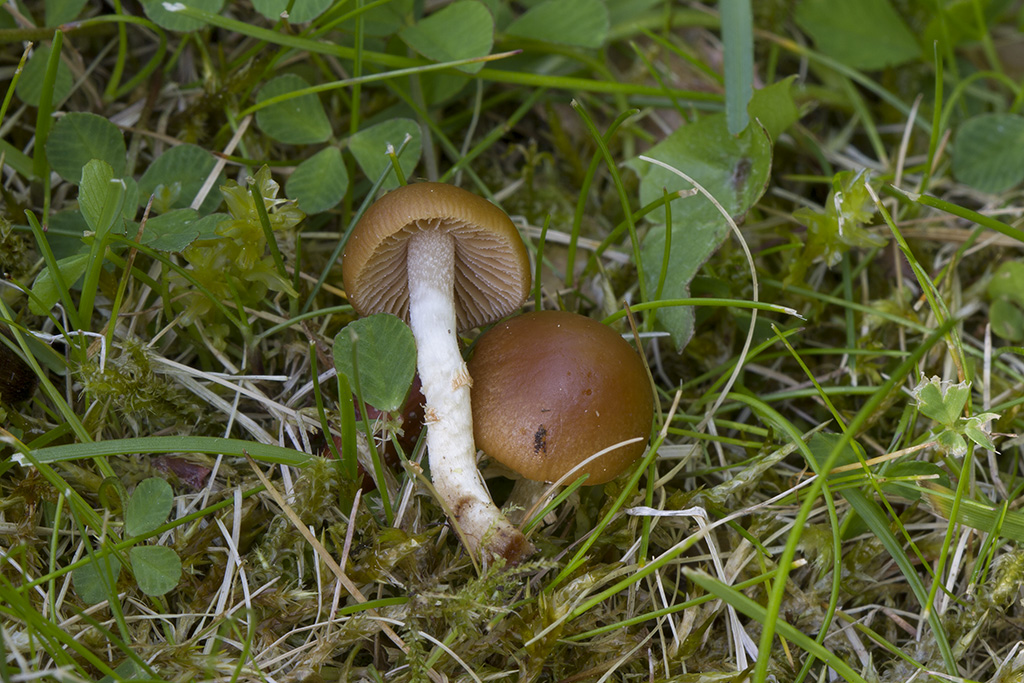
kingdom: Fungi
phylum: Basidiomycota
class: Agaricomycetes
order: Agaricales
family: Bolbitiaceae
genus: Conocybe
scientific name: Conocybe aporos
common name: tidlig dansehat
